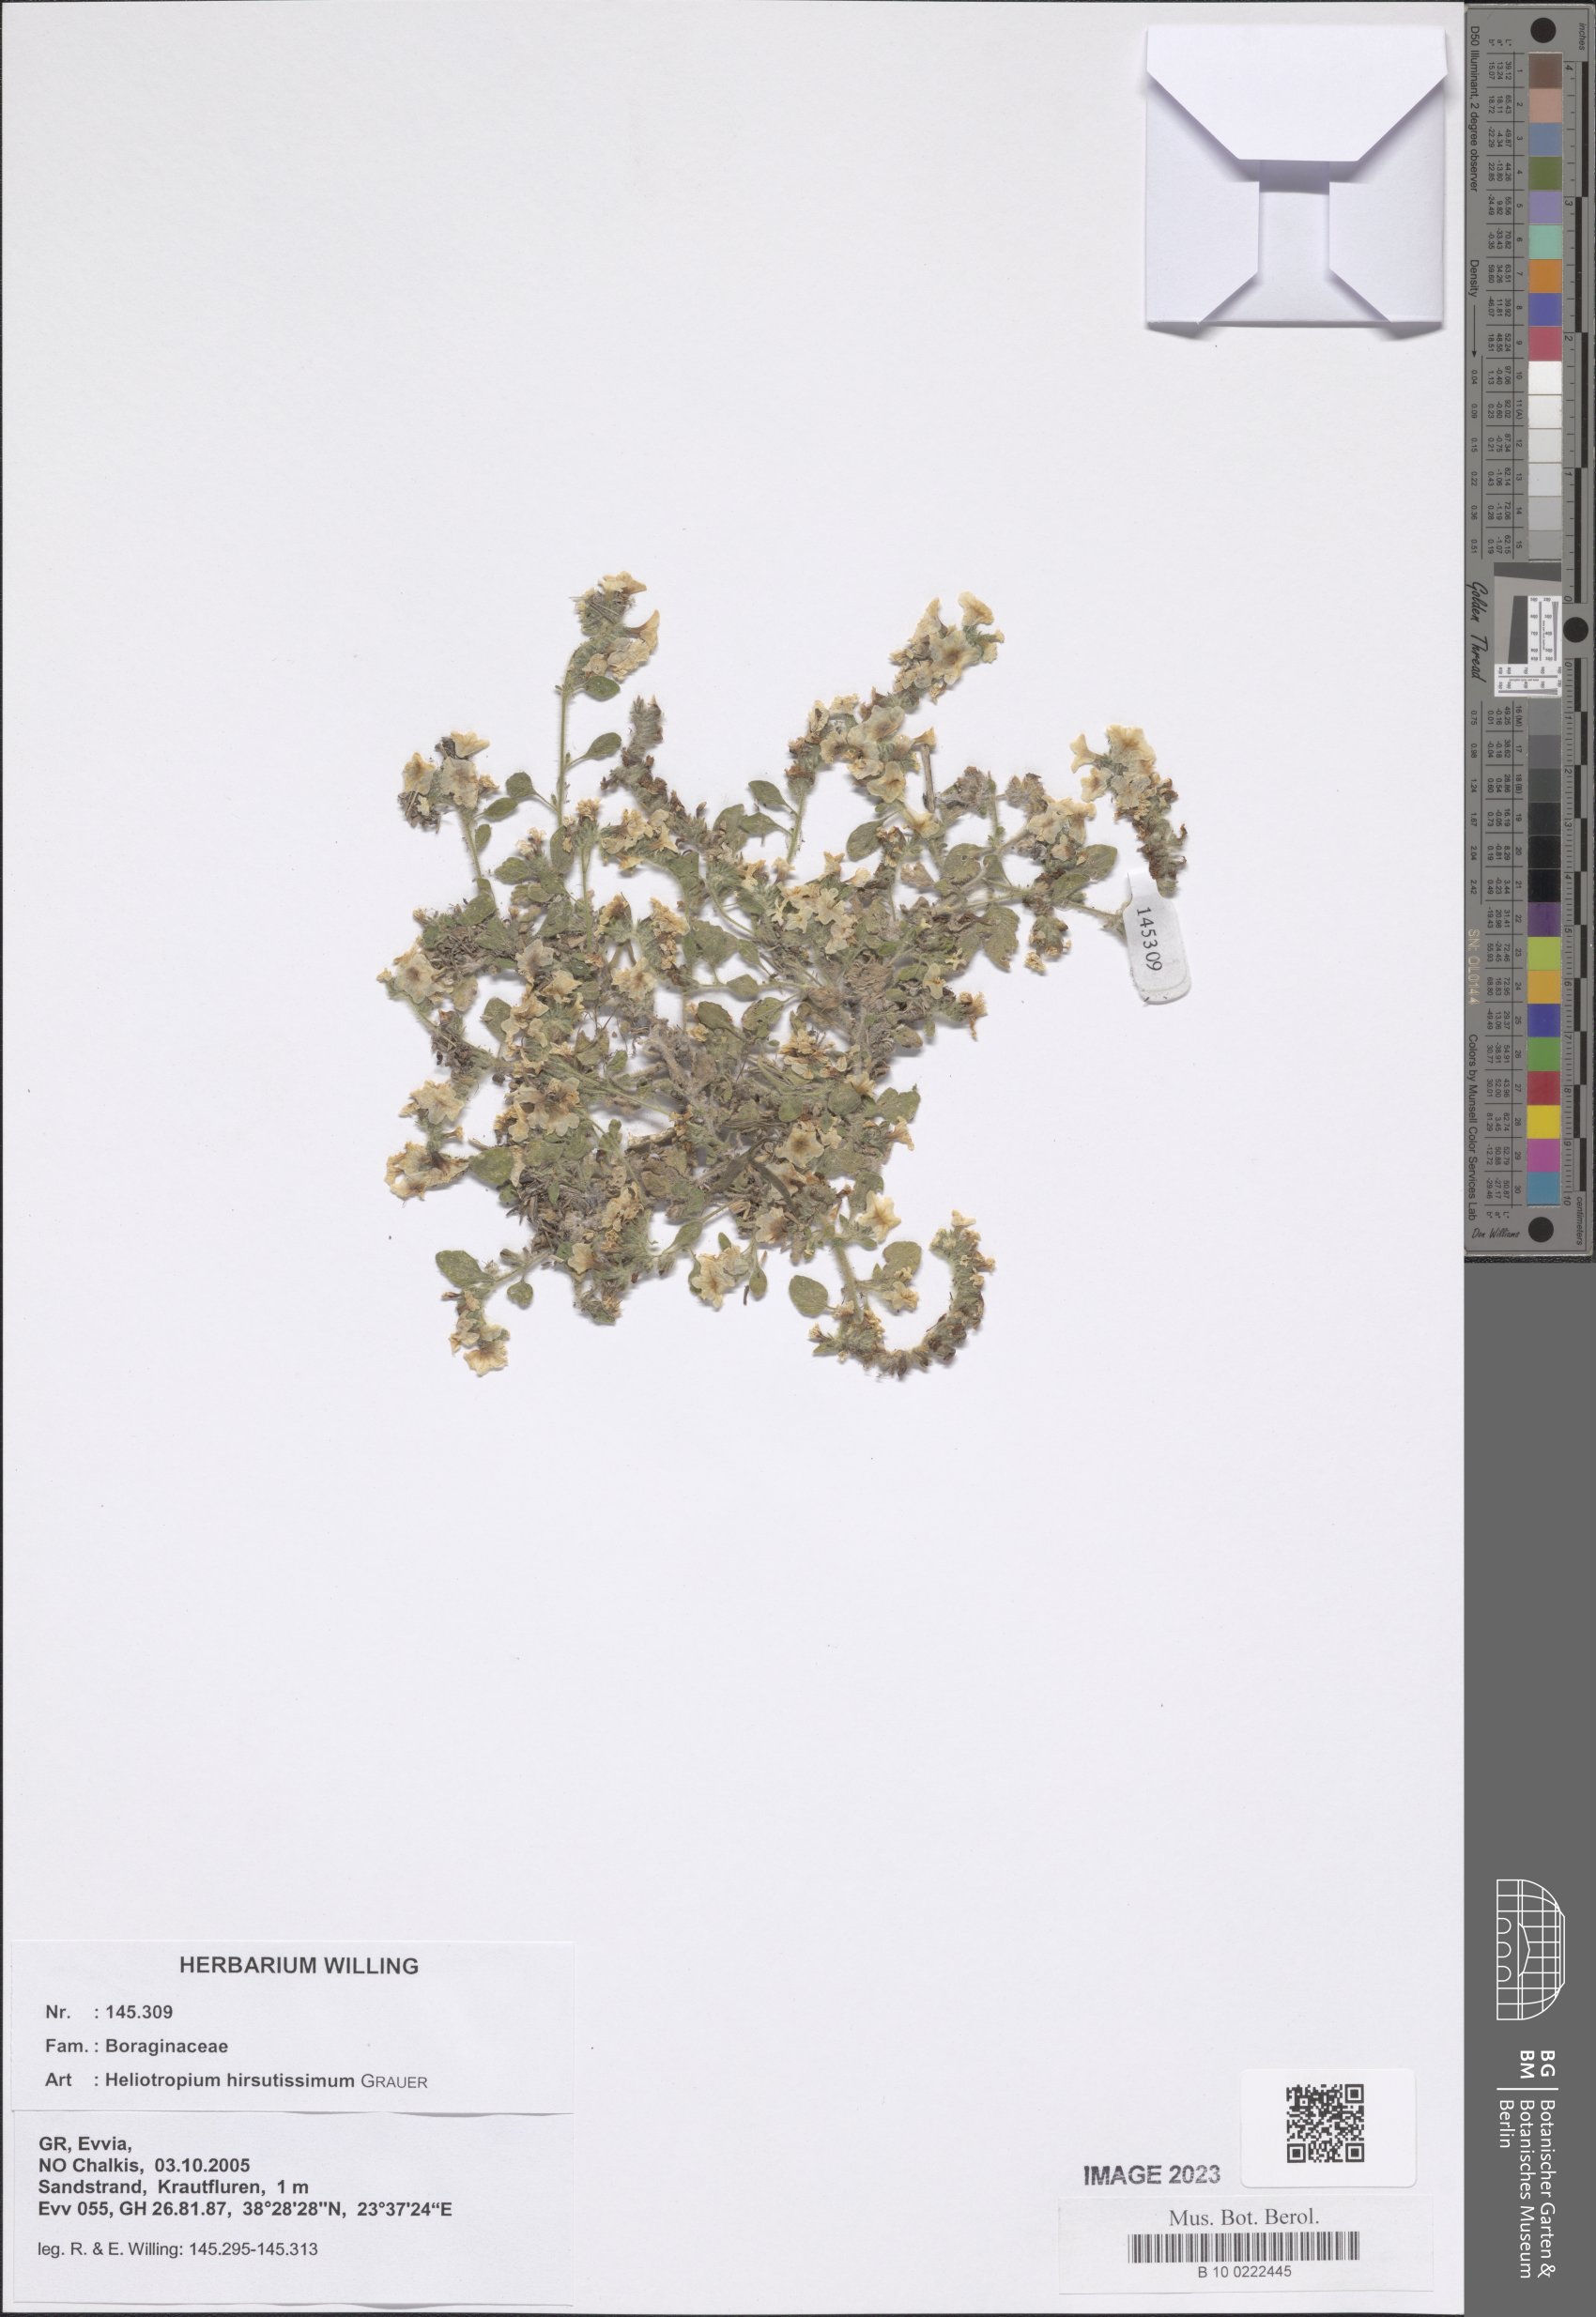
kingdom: Plantae
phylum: Tracheophyta
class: Magnoliopsida
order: Boraginales
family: Heliotropiaceae
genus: Heliotropium
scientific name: Heliotropium hirsutissimum
